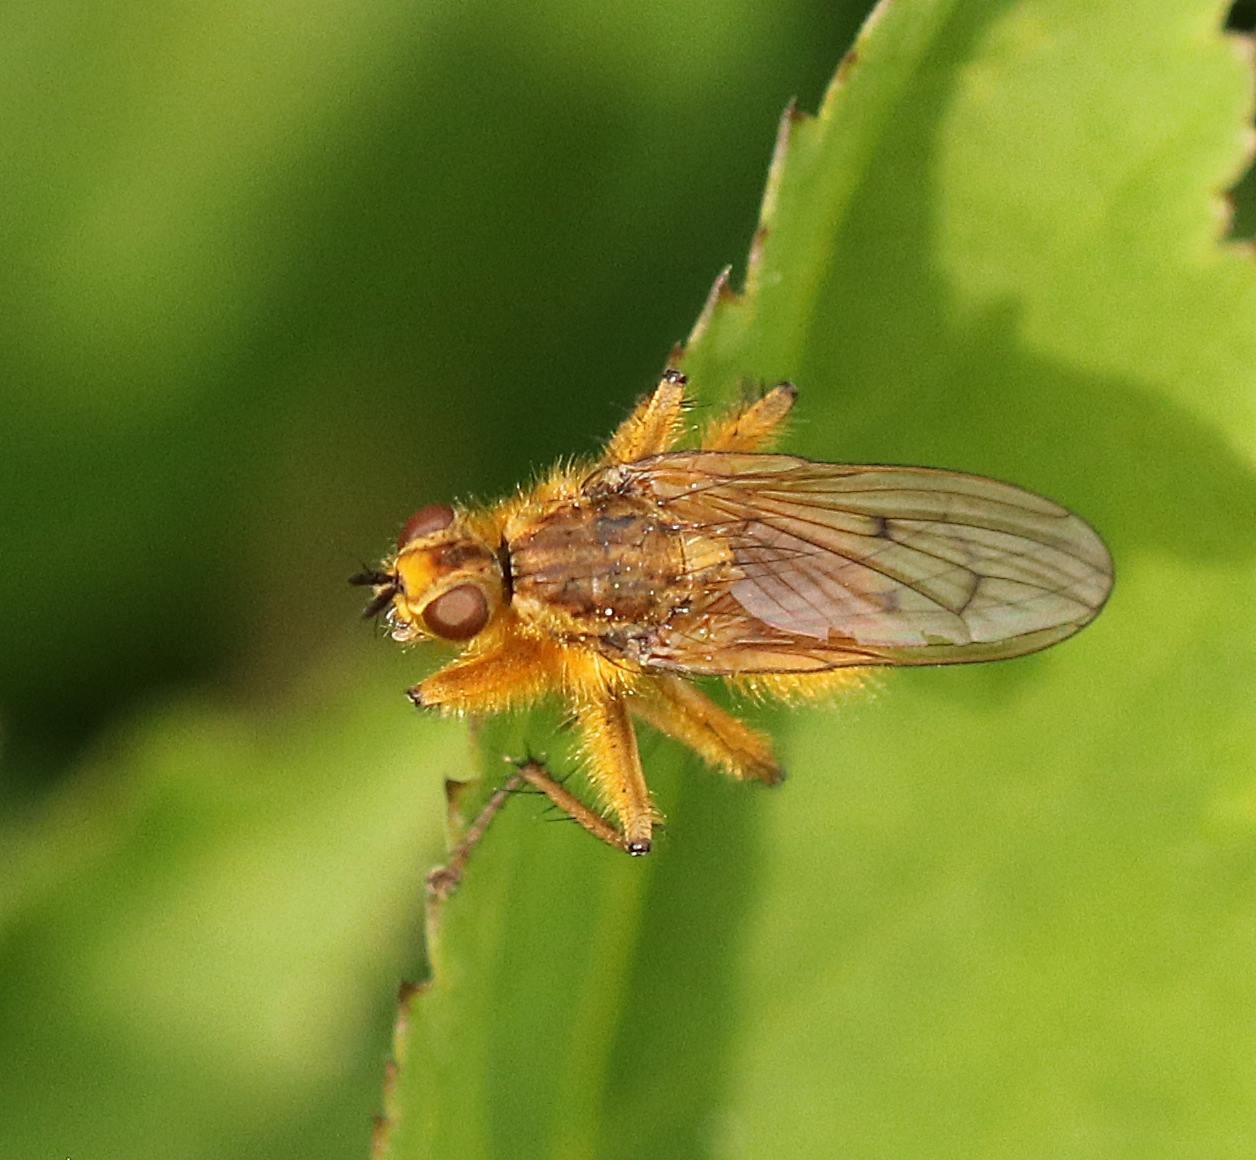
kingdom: Animalia
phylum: Arthropoda
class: Insecta
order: Diptera
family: Scathophagidae
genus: Scathophaga
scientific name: Scathophaga stercoraria
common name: Almindelig gødningsflue
